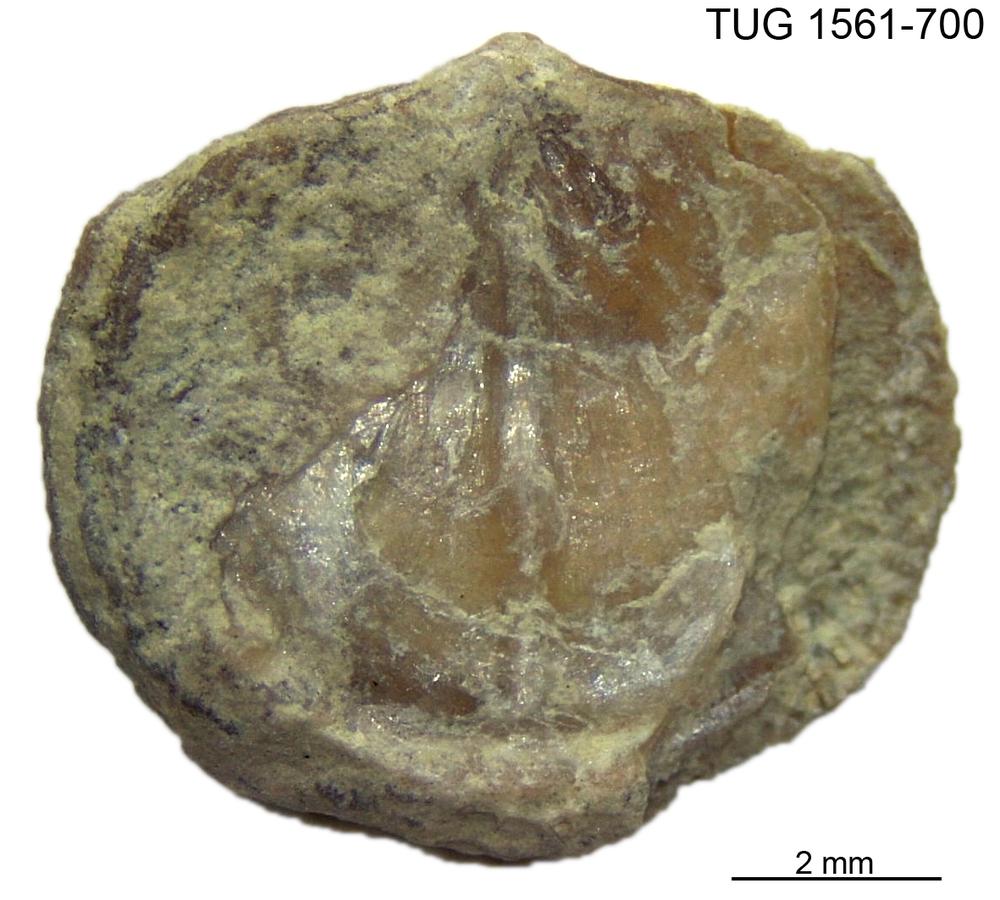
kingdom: Animalia
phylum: Brachiopoda
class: Rhynchonellata
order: Rhynchonellida
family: Leptocoeliidae
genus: Eocoelia
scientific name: Eocoelia angelini
